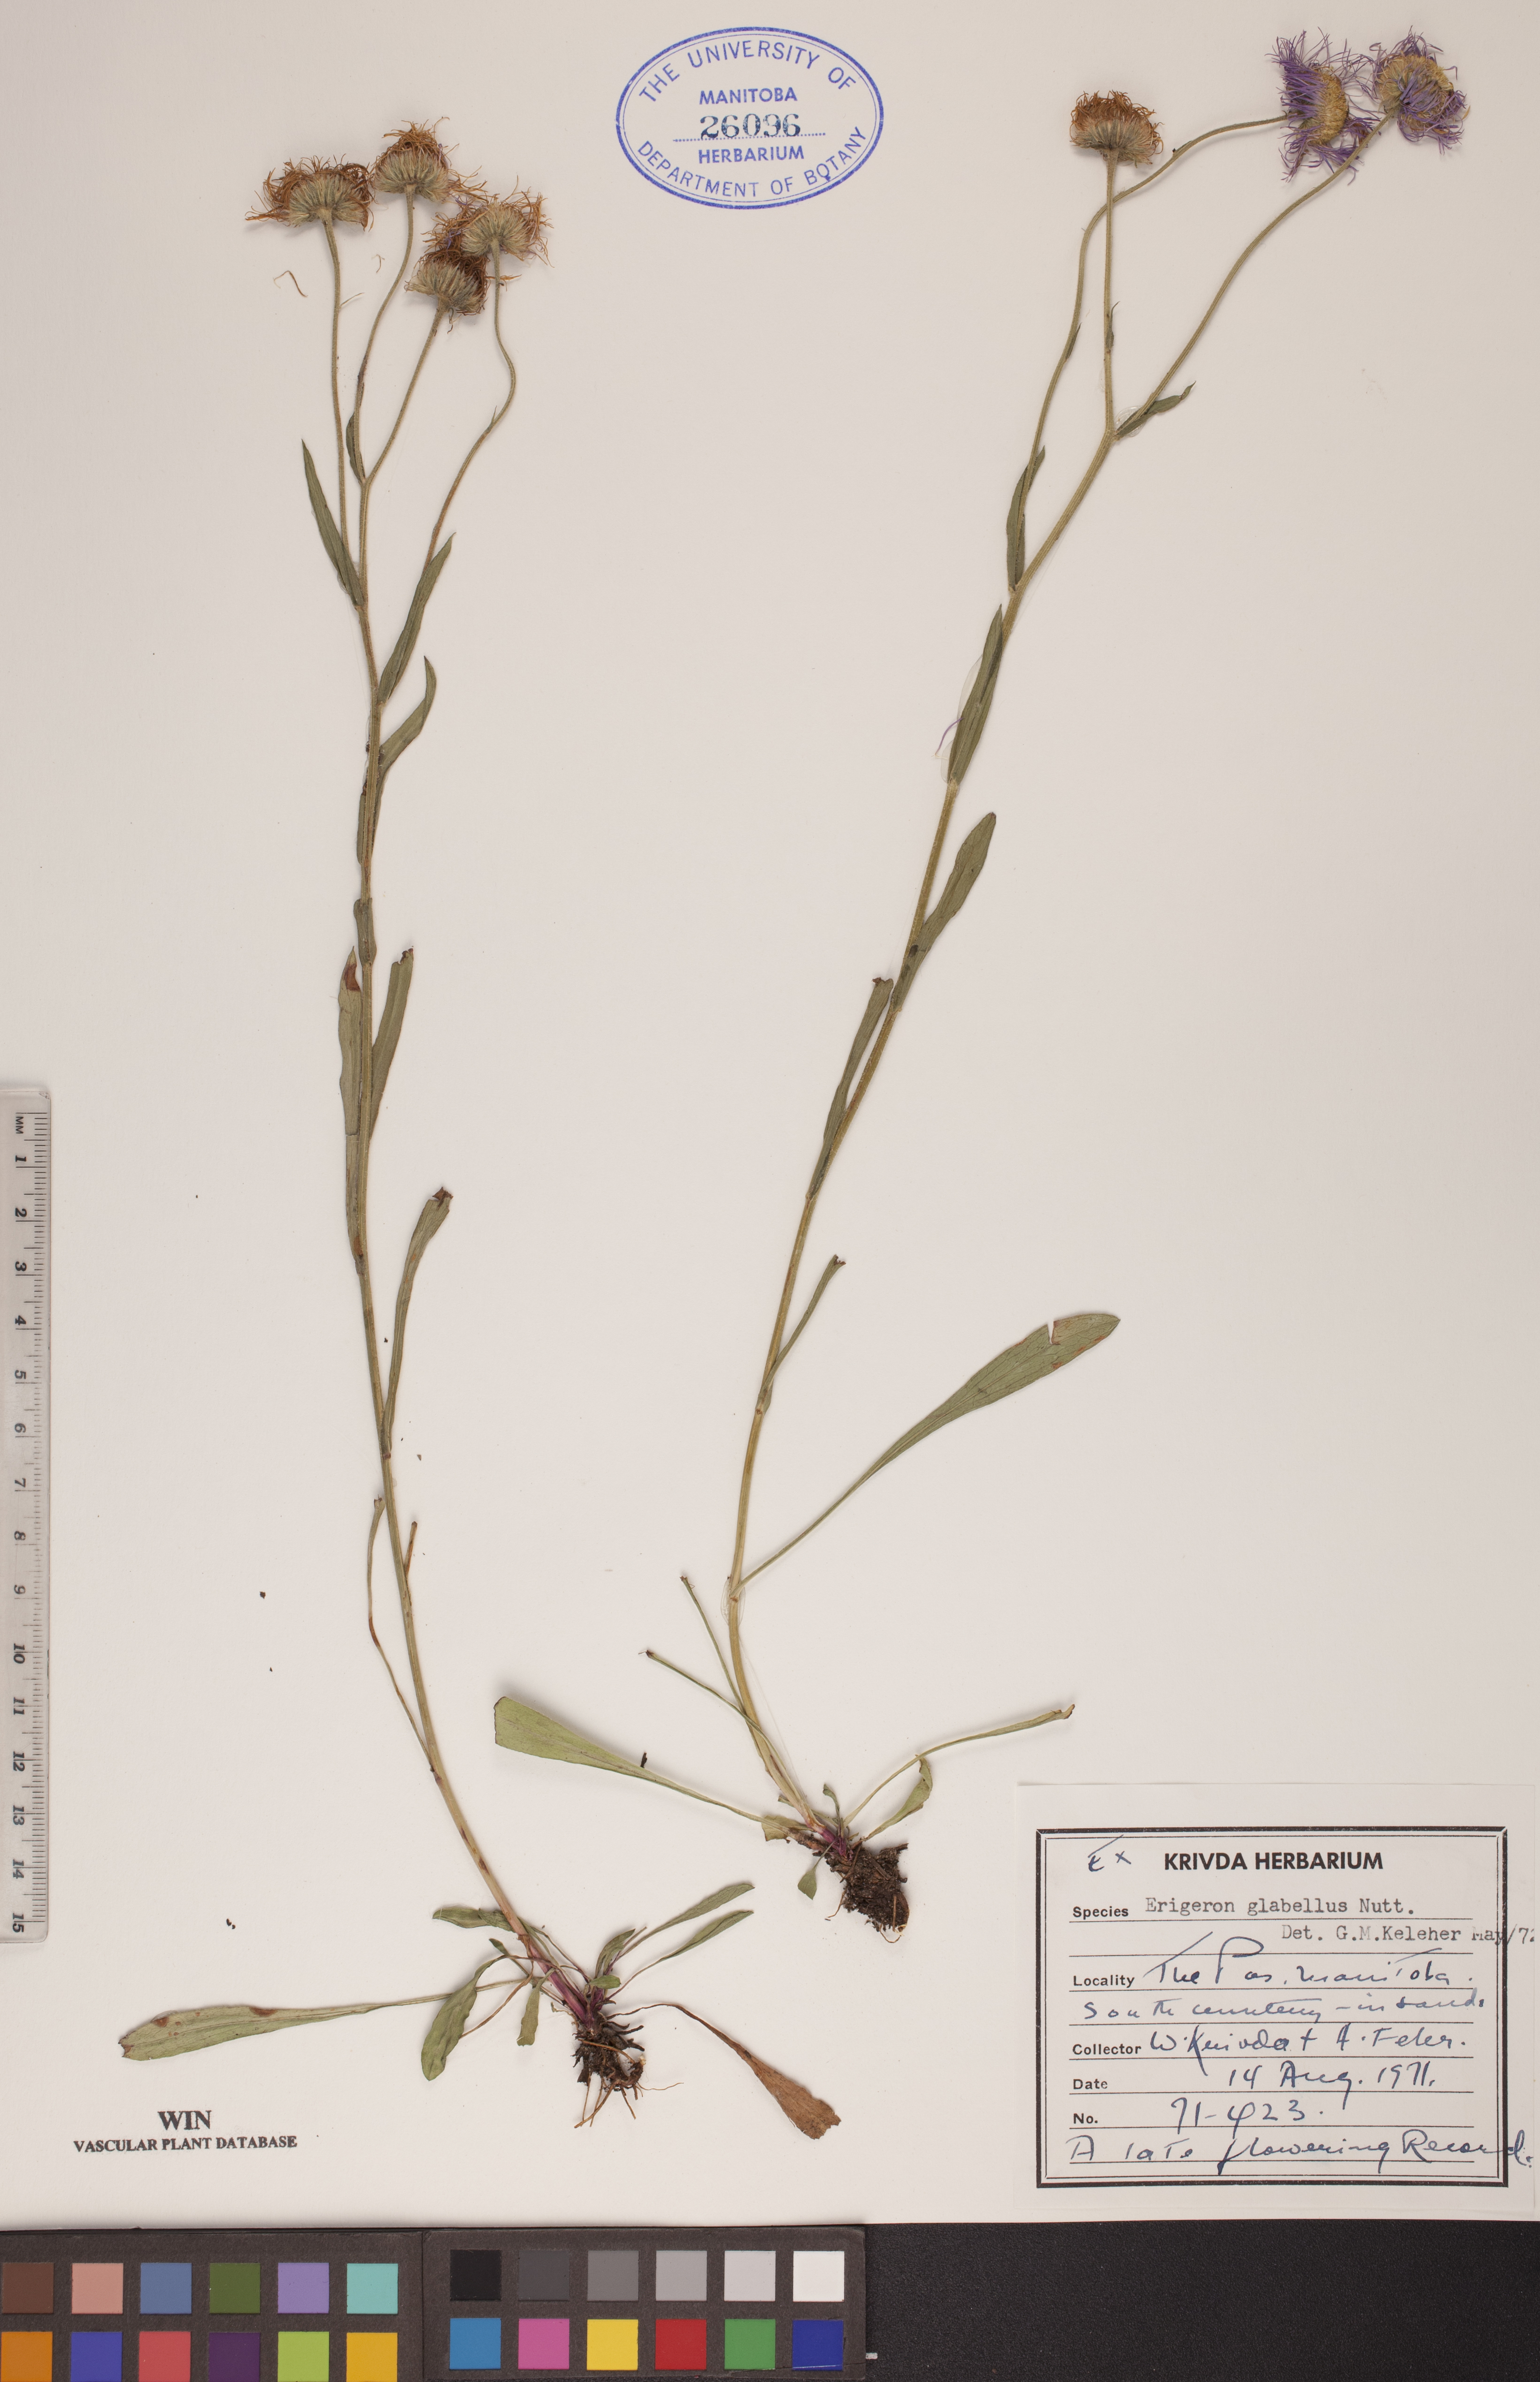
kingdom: Plantae
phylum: Tracheophyta
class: Magnoliopsida
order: Asterales
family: Asteraceae
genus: Erigeron
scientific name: Erigeron glabellus
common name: Smooth fleabane
